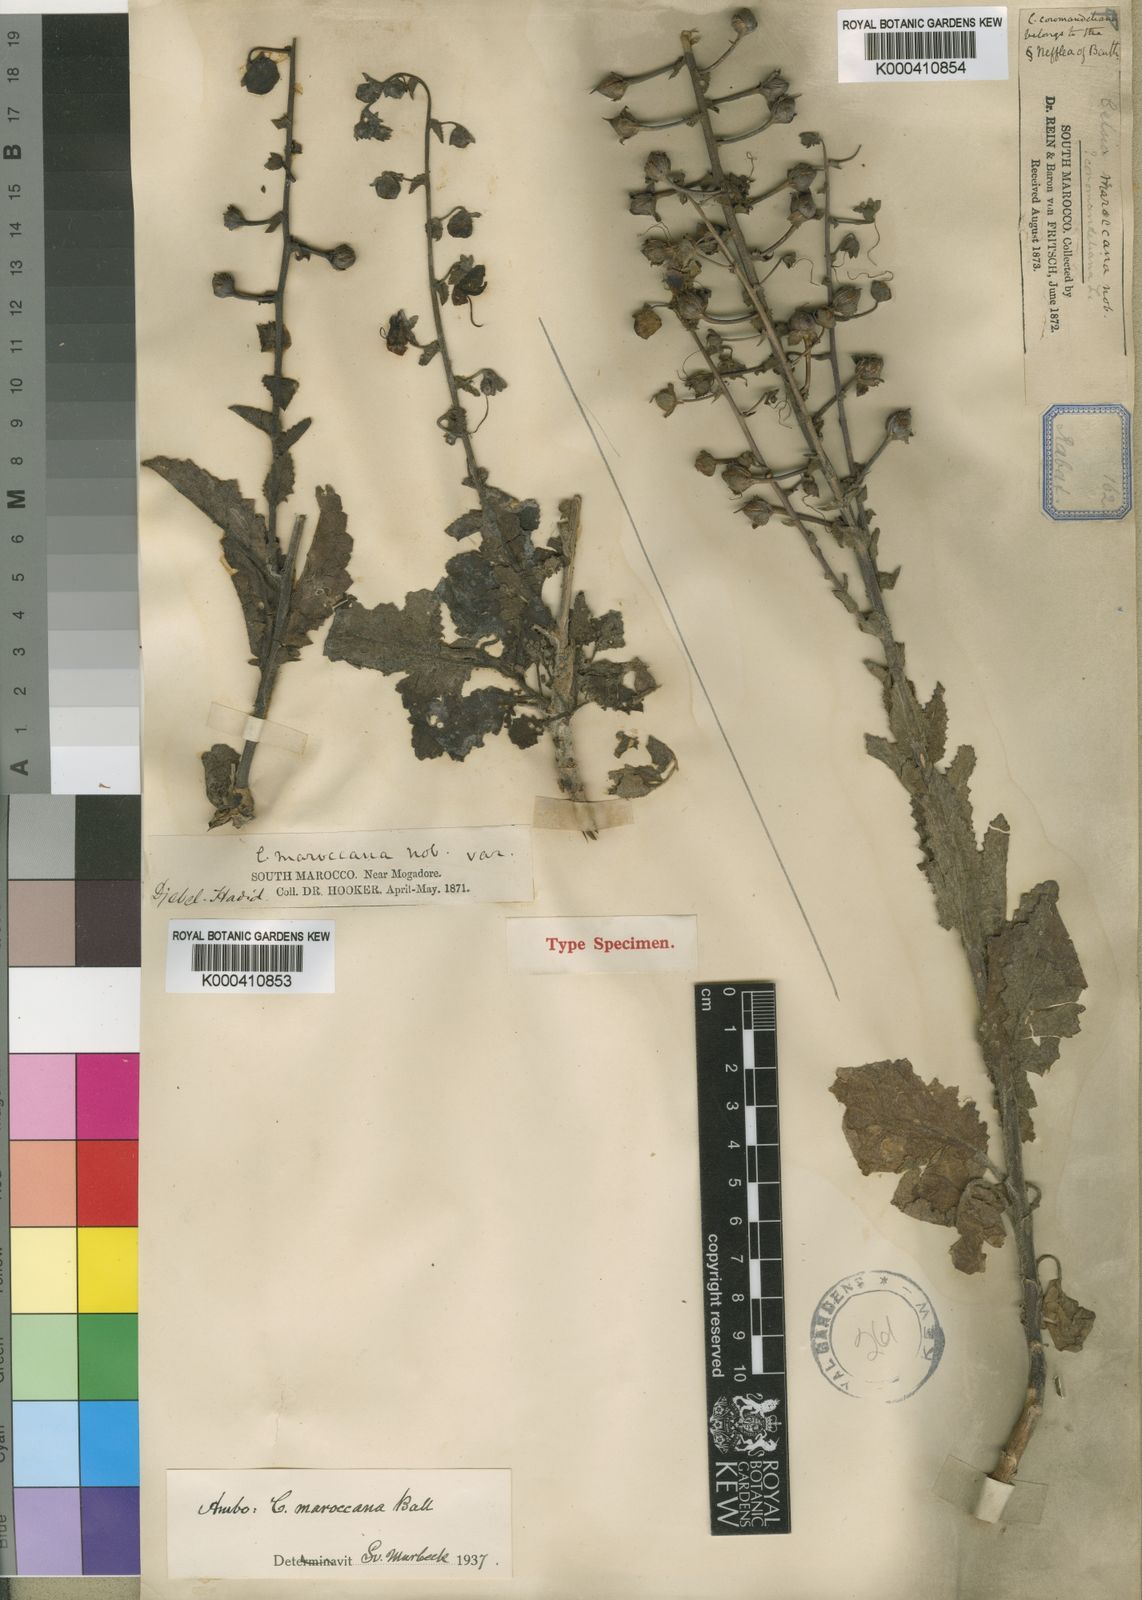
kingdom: Plantae
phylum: Tracheophyta
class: Magnoliopsida
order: Lamiales
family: Scrophulariaceae
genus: Verbascum
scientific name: Verbascum maroccanum
